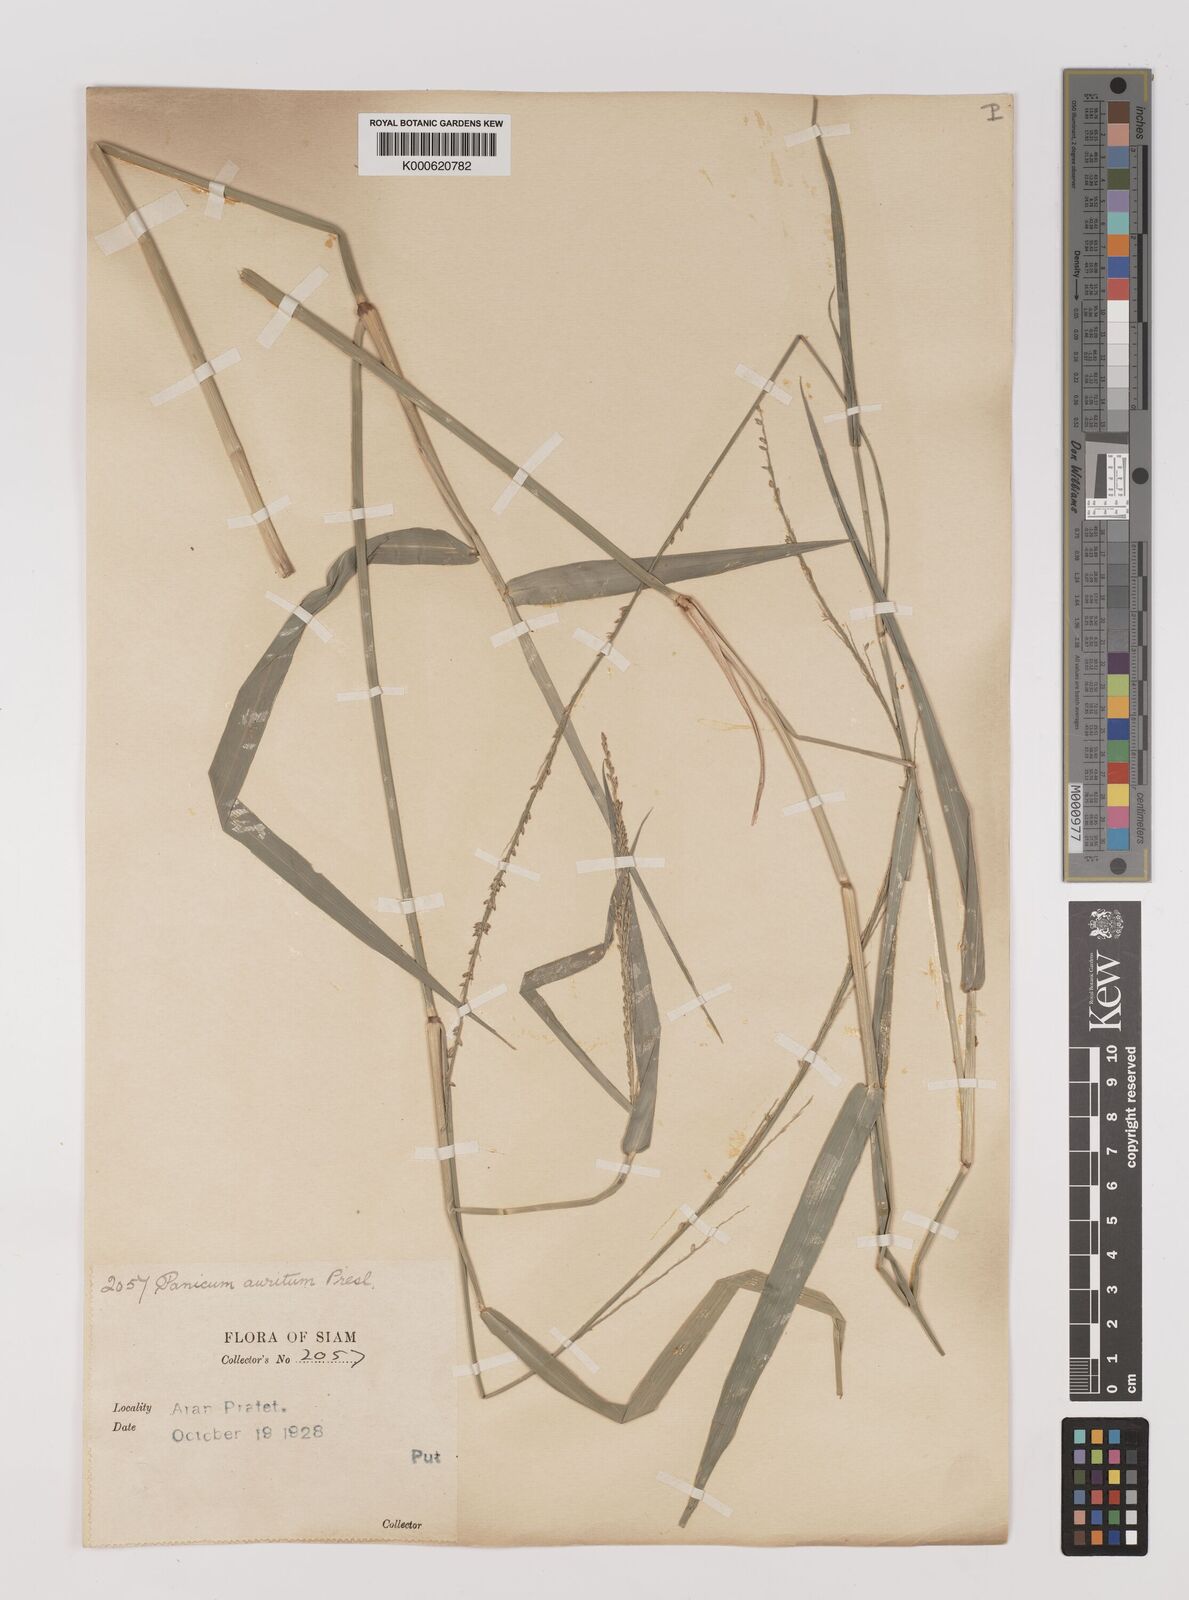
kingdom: Plantae
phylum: Tracheophyta
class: Liliopsida
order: Poales
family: Poaceae
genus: Hymenachne
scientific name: Hymenachne aurita
